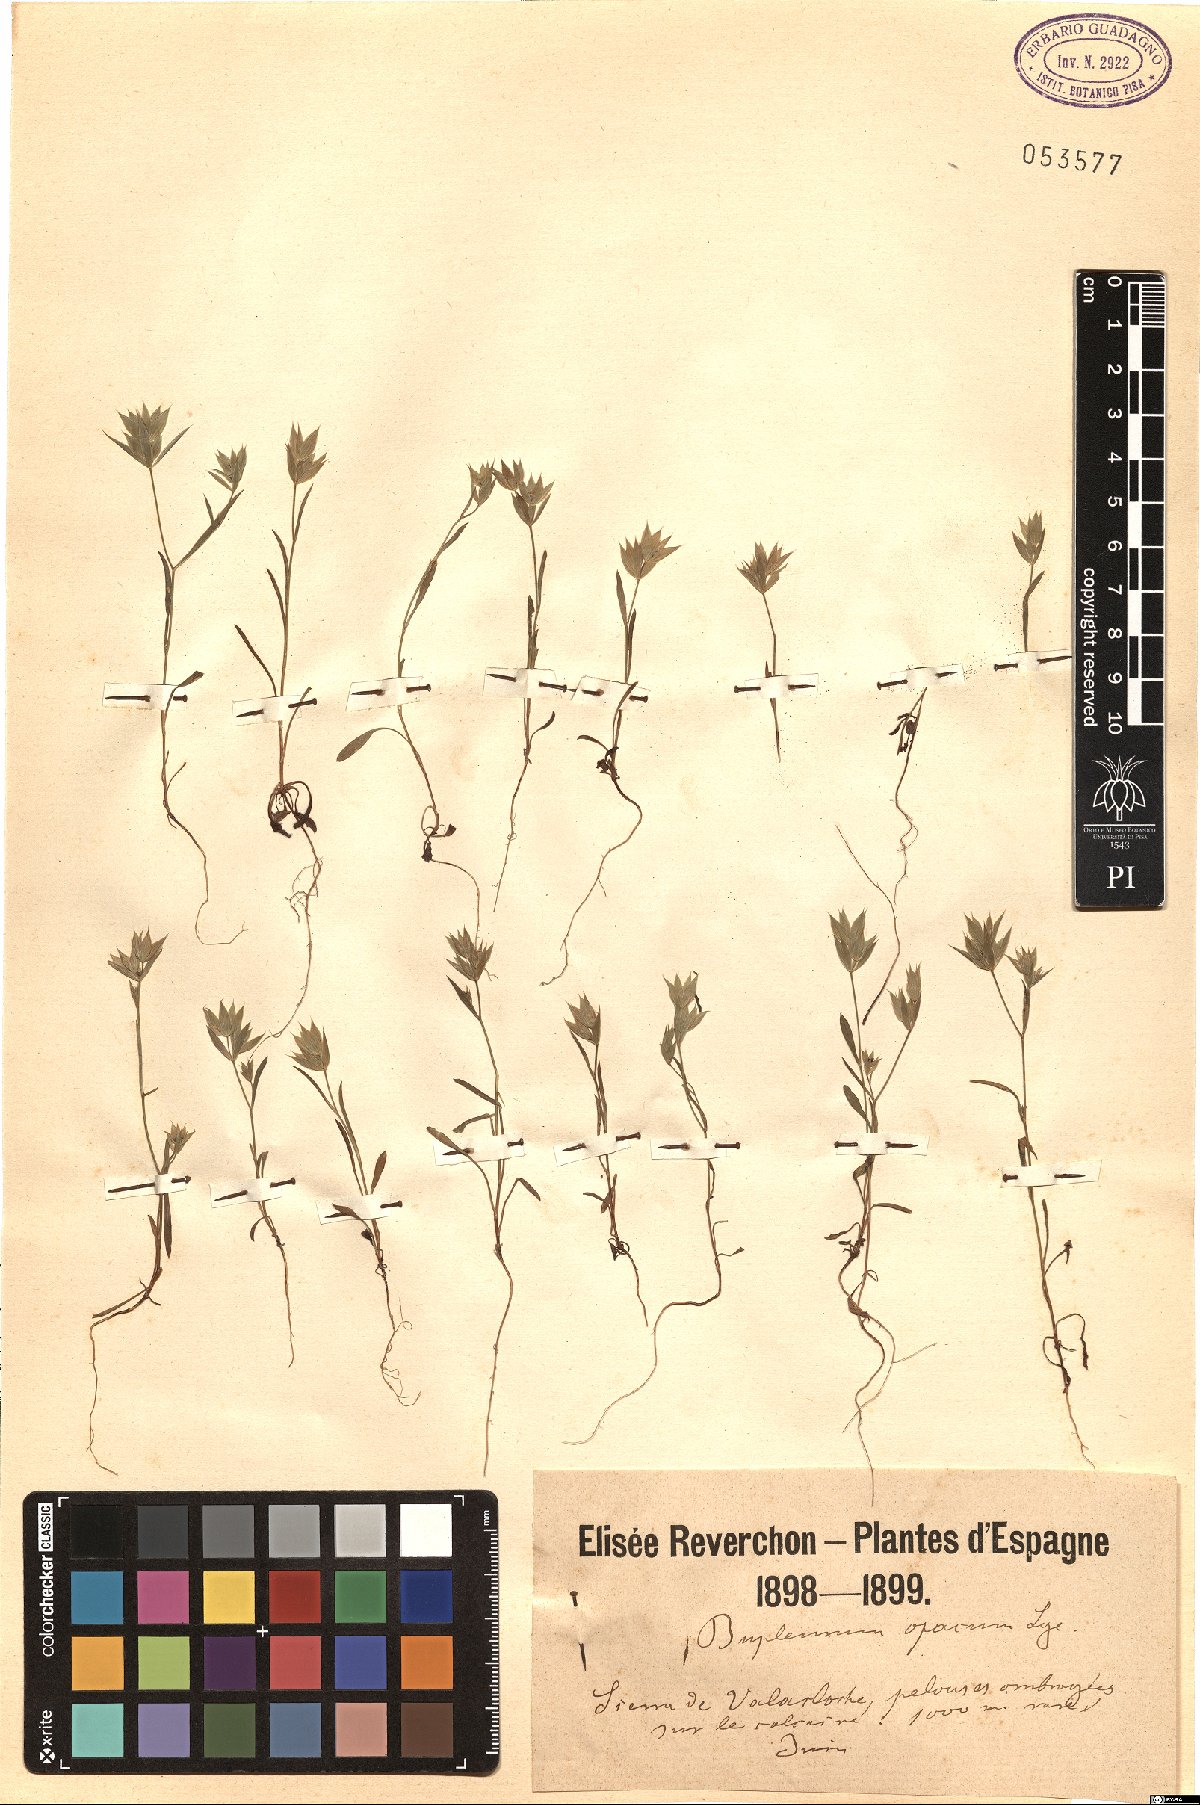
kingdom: Plantae
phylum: Tracheophyta
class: Magnoliopsida
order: Apiales
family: Apiaceae
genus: Bupleurum
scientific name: Bupleurum baldense
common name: Small hare's-ear
